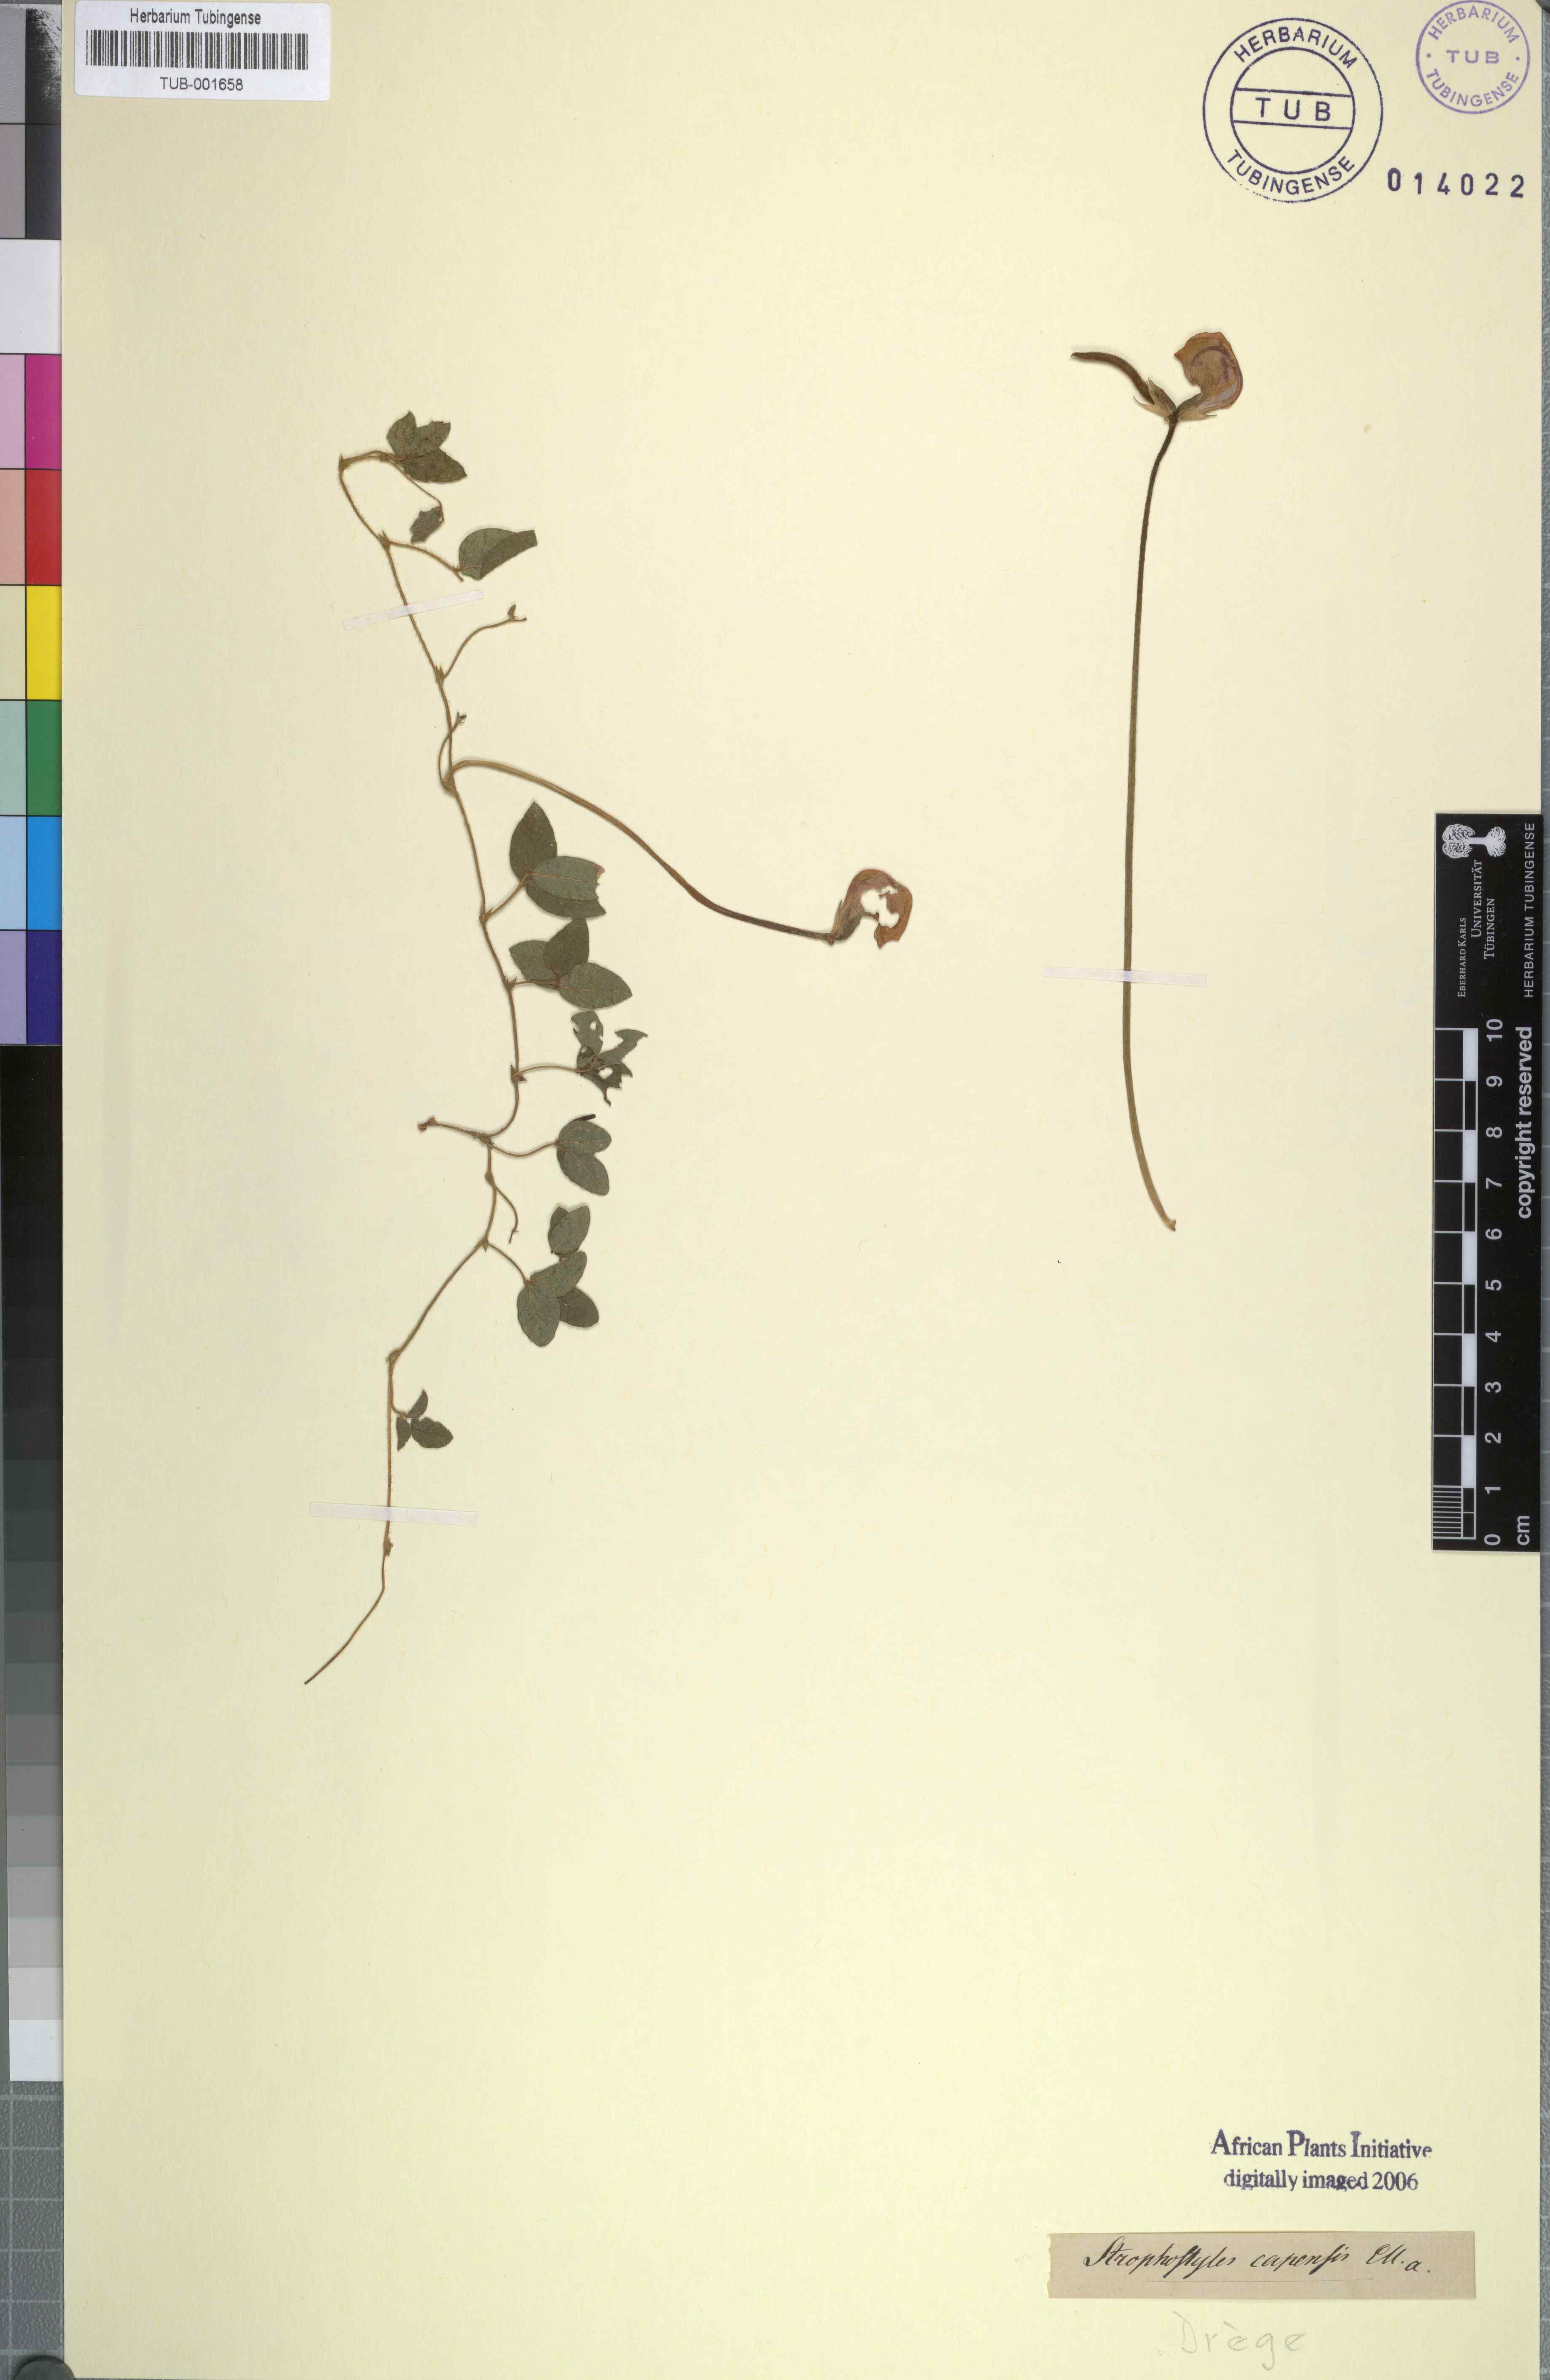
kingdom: Plantae
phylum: Tracheophyta
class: Magnoliopsida
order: Fabales
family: Fabaceae
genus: Vigna
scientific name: Vigna vexillata
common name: Zombi pea
